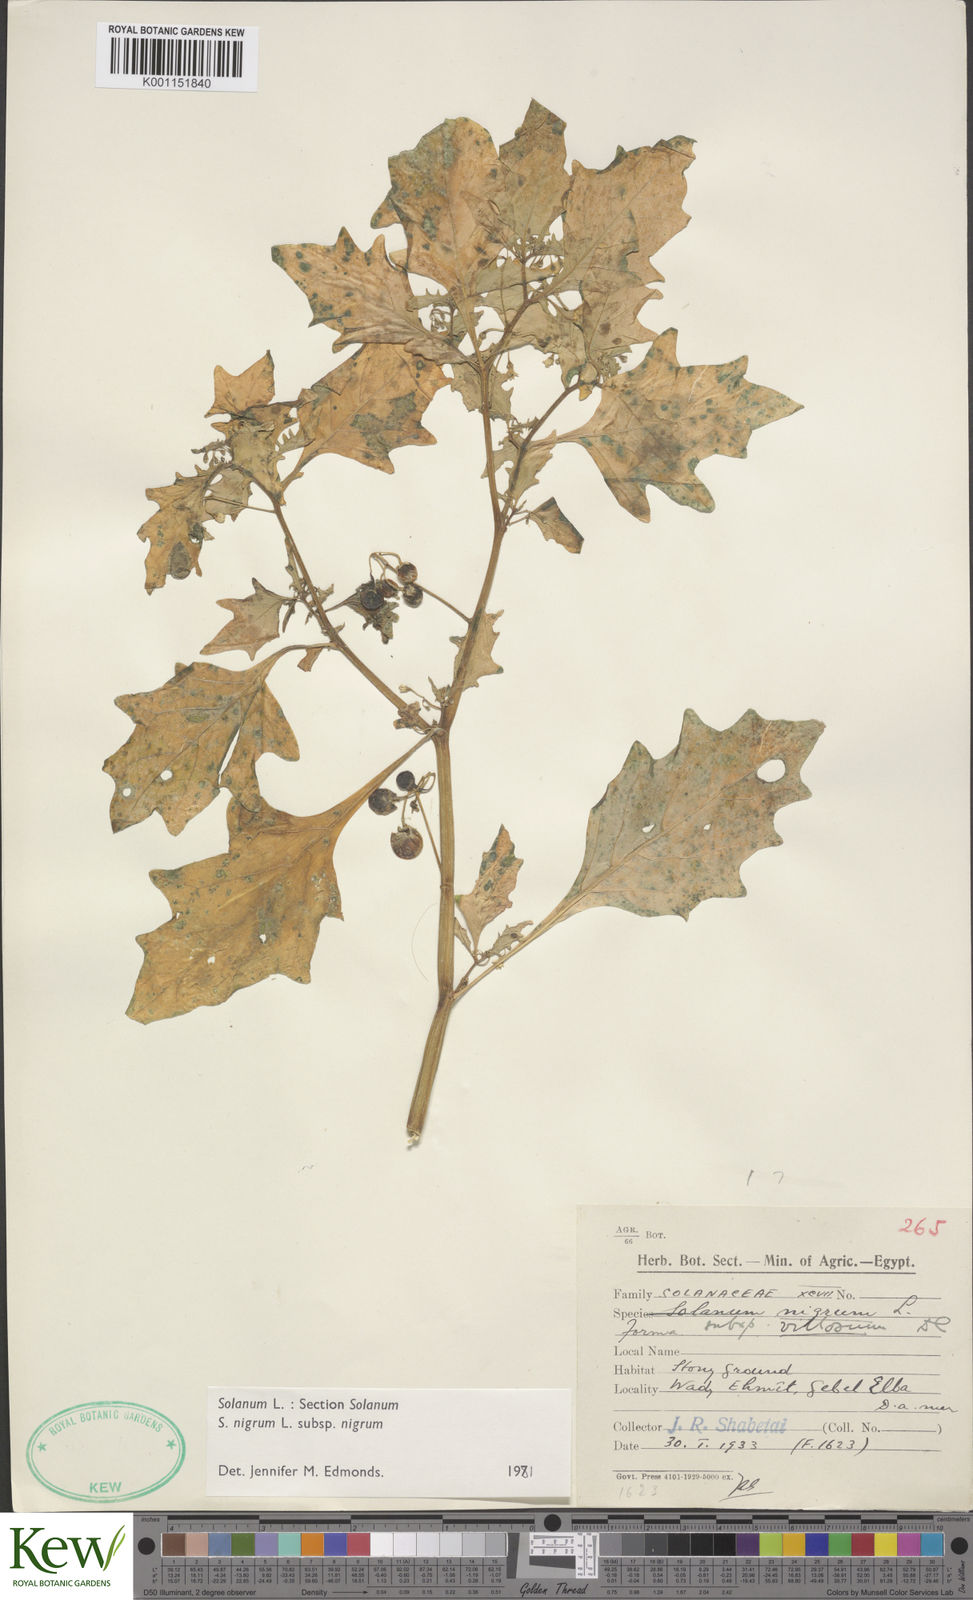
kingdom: Plantae
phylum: Tracheophyta
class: Magnoliopsida
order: Solanales
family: Solanaceae
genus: Solanum
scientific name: Solanum
